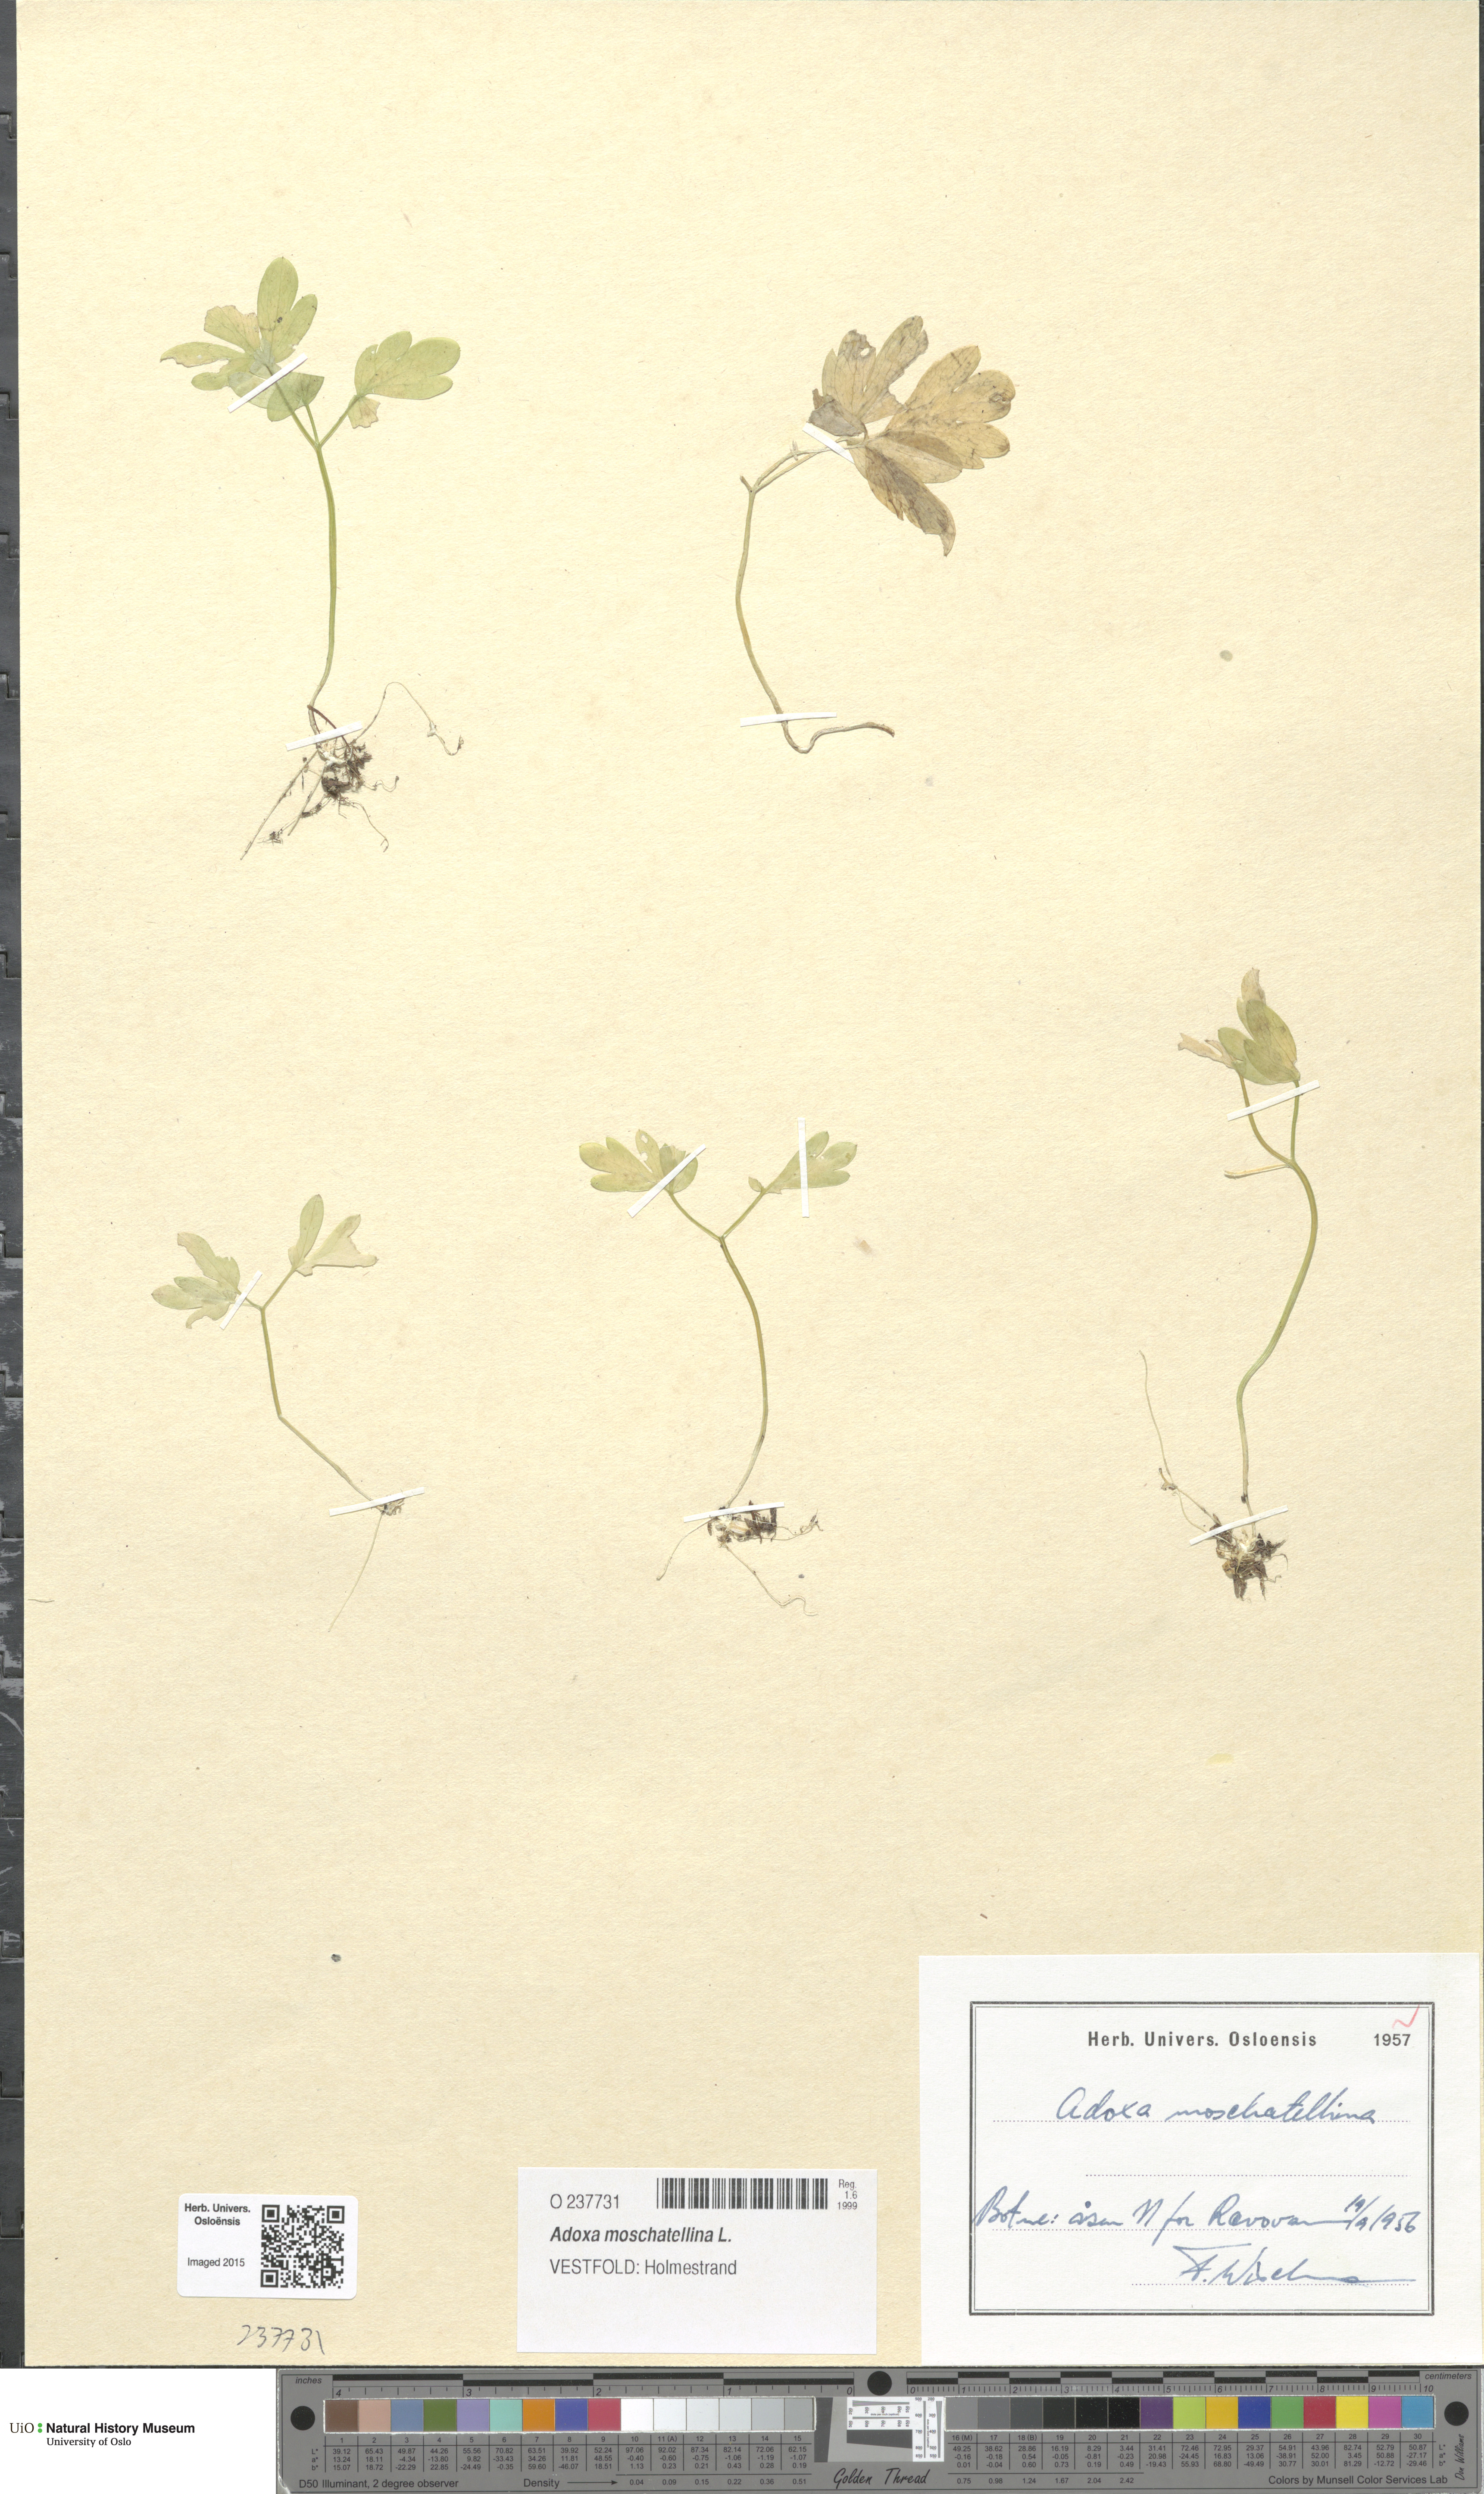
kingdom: Plantae
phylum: Tracheophyta
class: Magnoliopsida
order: Dipsacales
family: Viburnaceae
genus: Adoxa
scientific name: Adoxa moschatellina
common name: Moschatel
